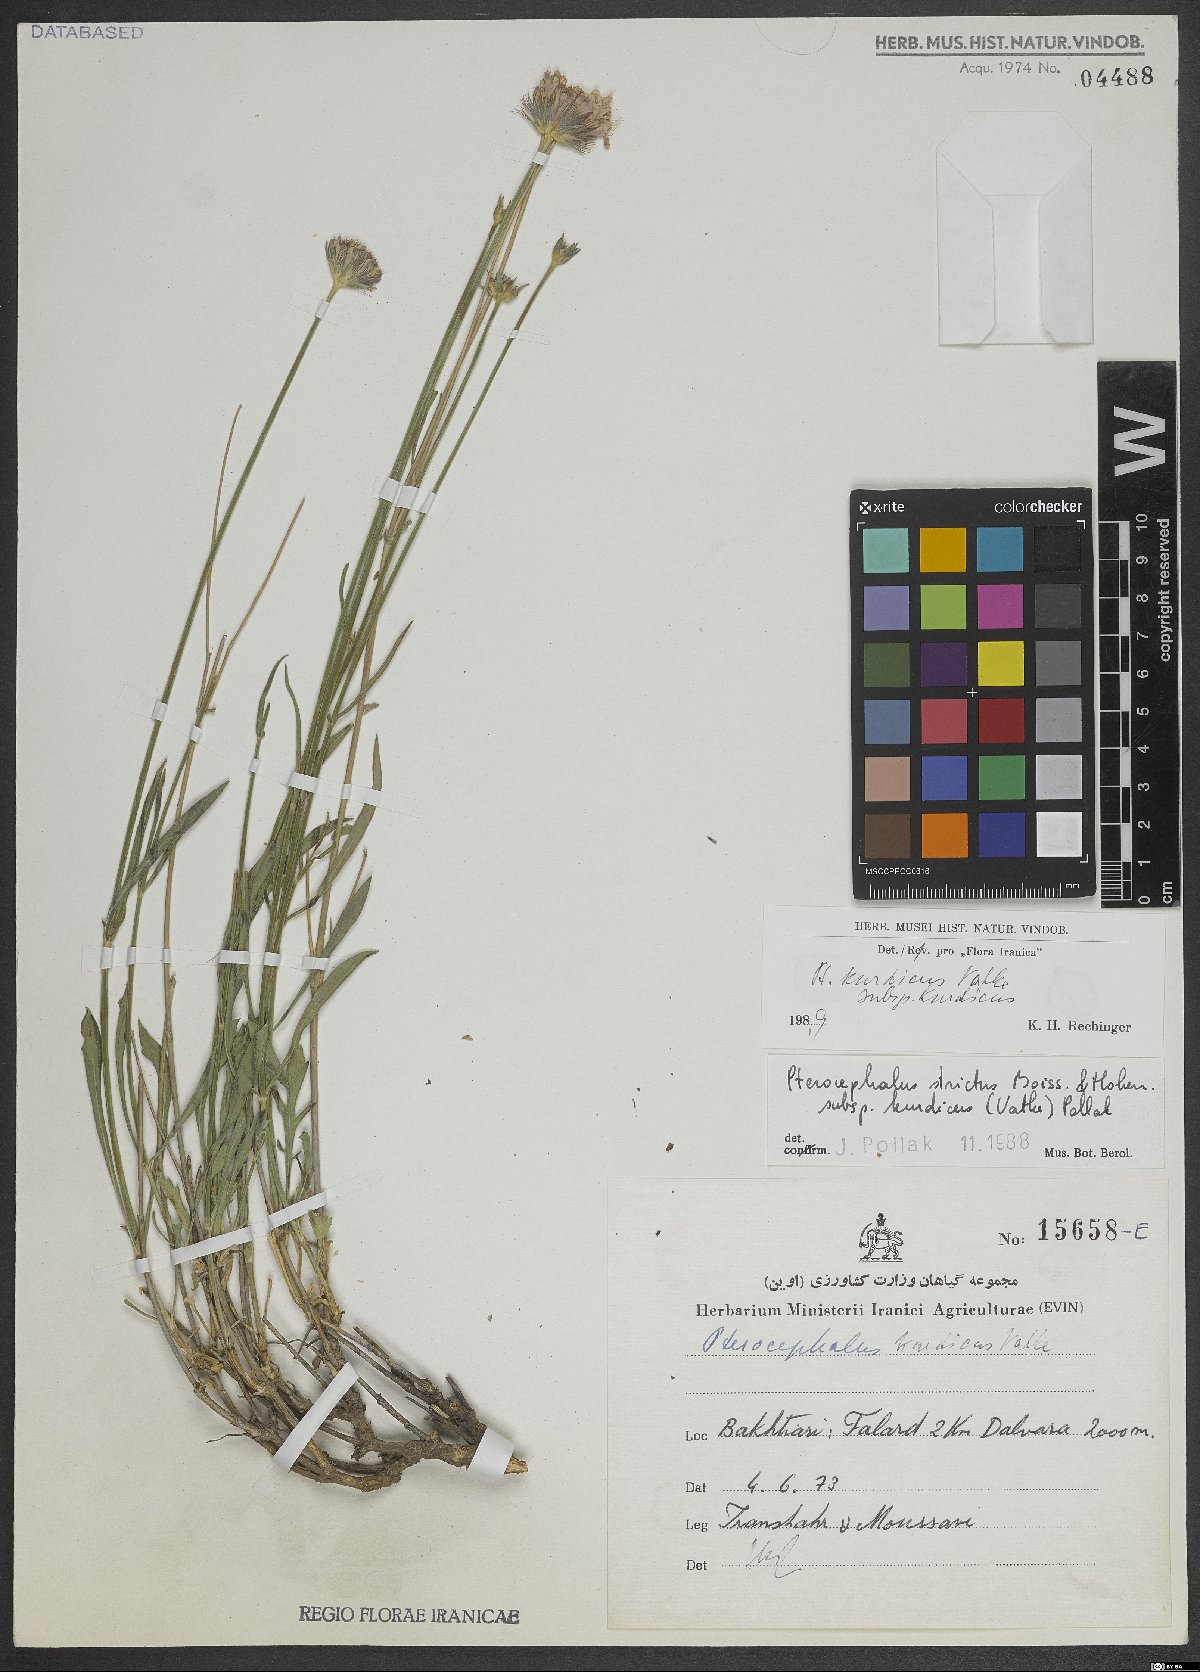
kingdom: Plantae
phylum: Tracheophyta
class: Magnoliopsida
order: Dipsacales
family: Caprifoliaceae
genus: Pterocephalus
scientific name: Pterocephalus kurdicus
